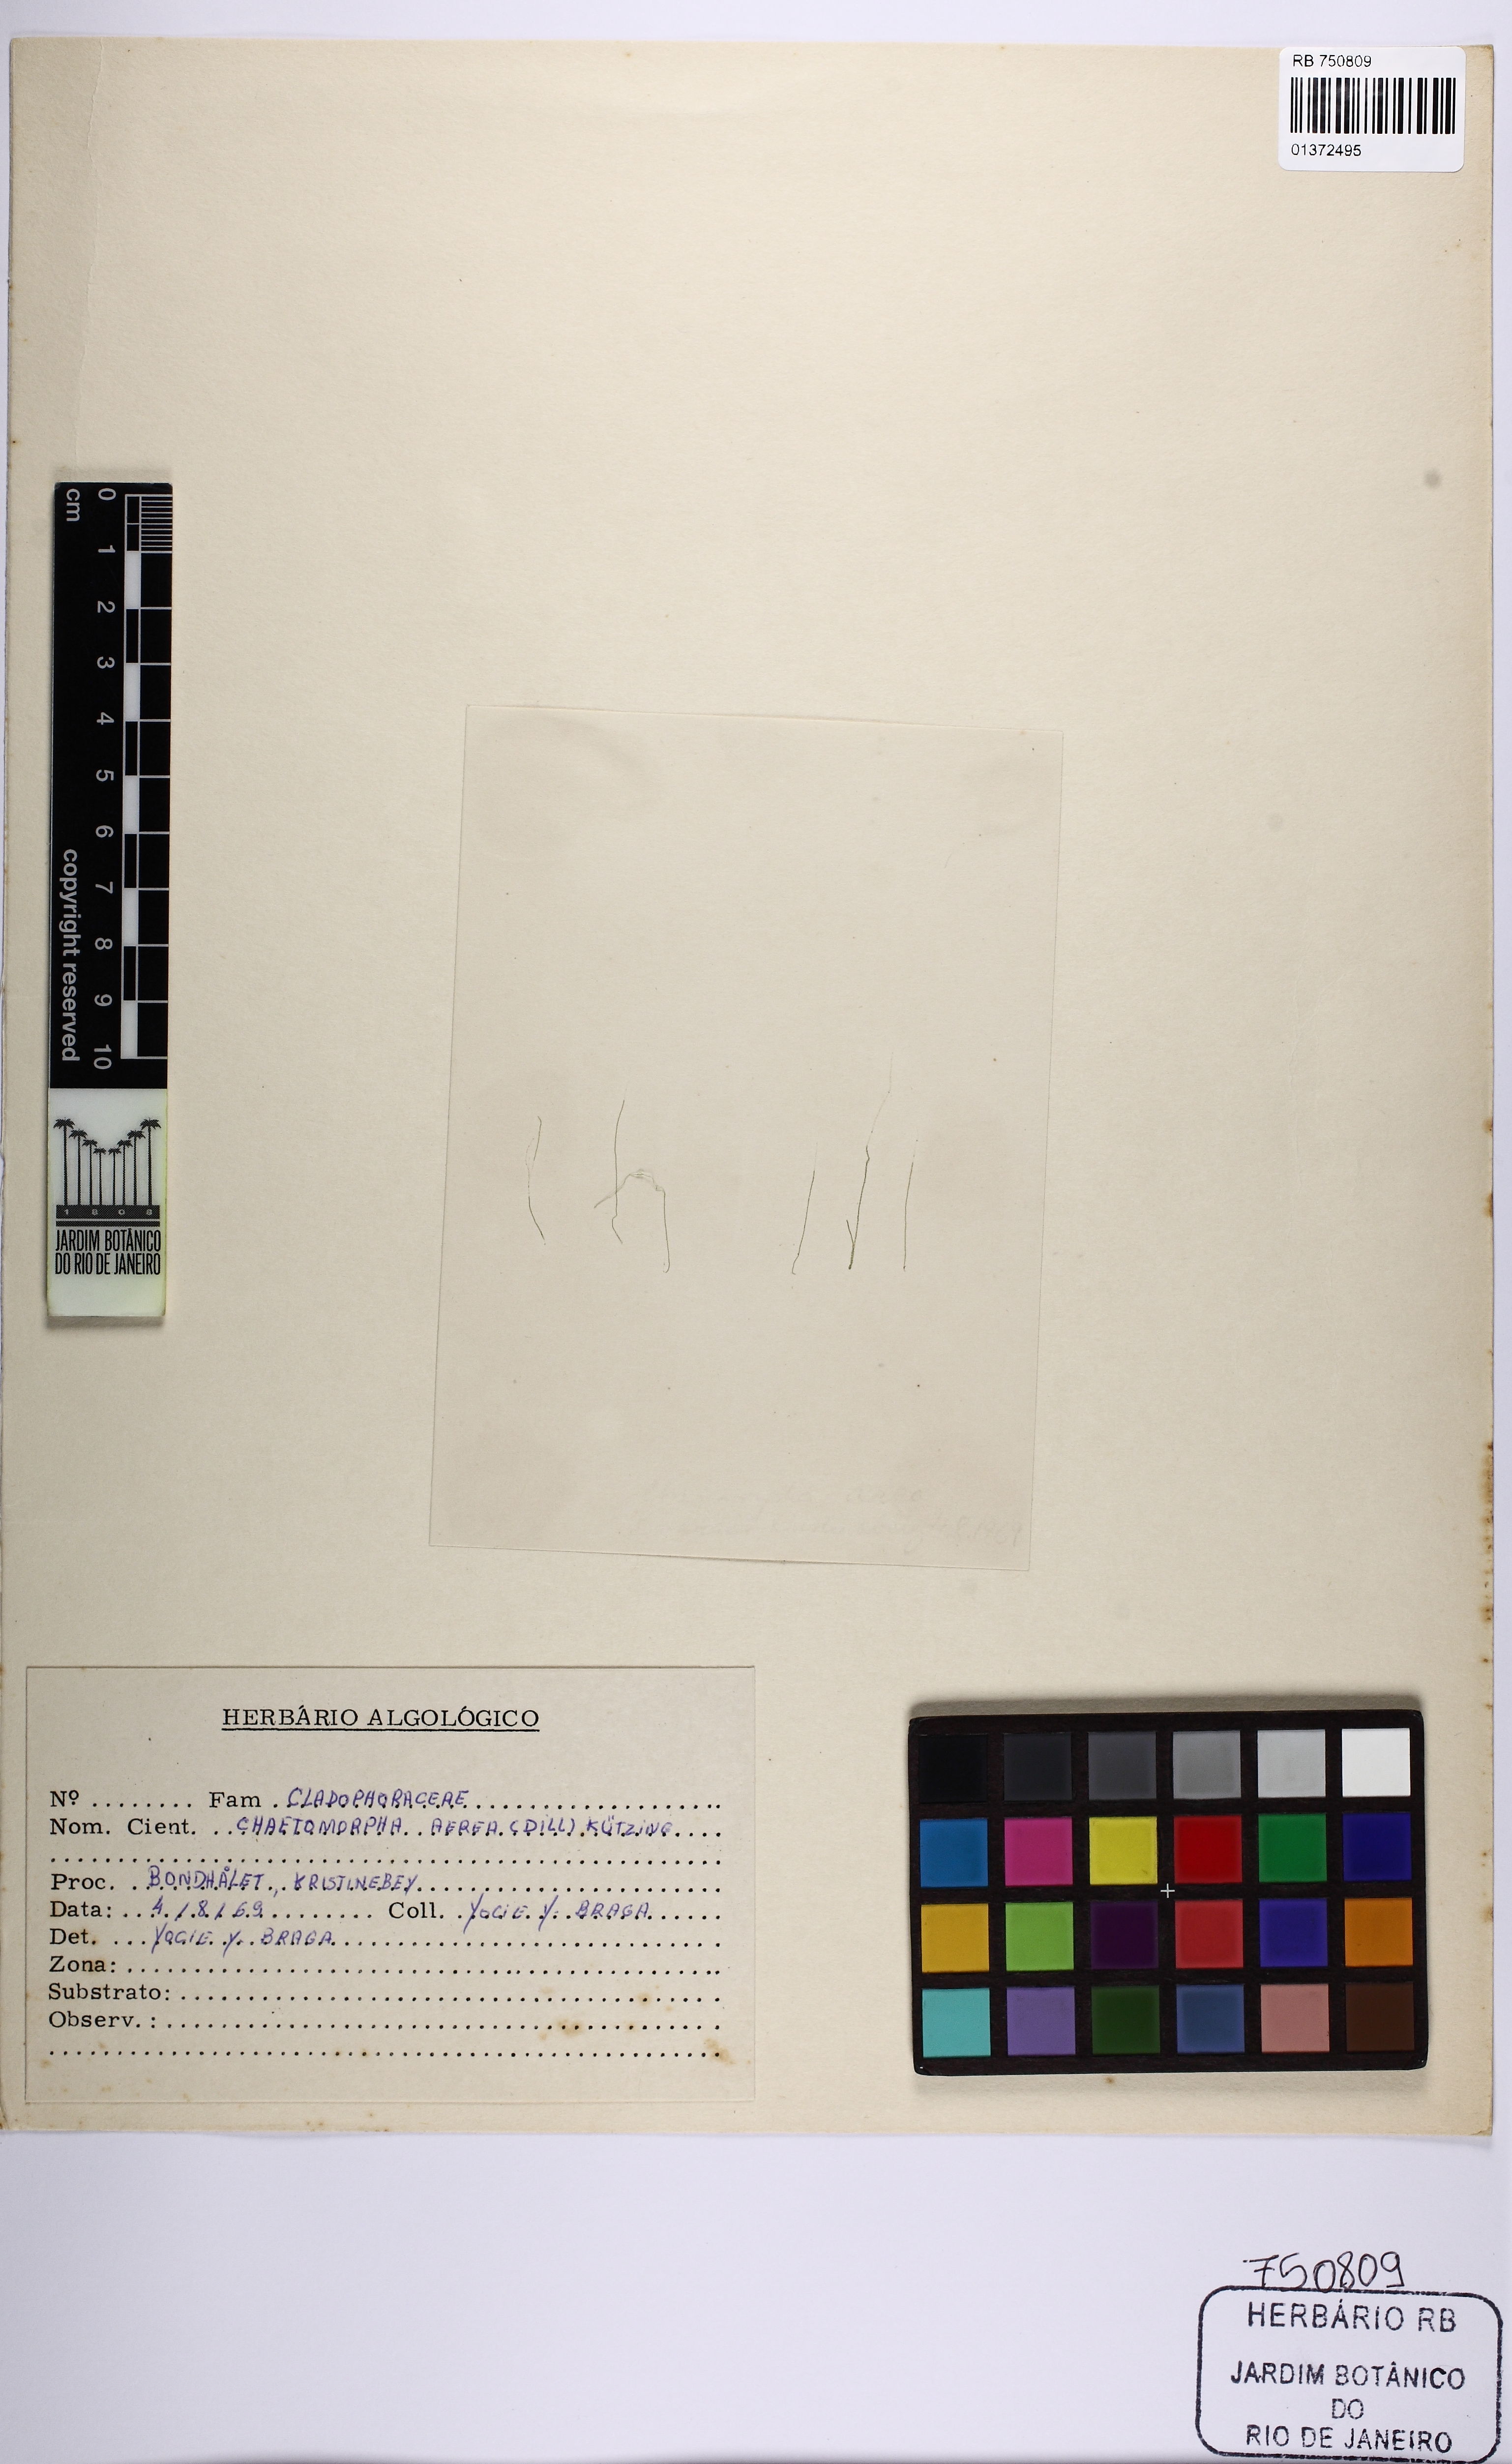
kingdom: Plantae
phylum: Chlorophyta
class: Ulvophyceae
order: Cladophorales
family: Cladophoraceae
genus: Chaetomorpha
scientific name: Chaetomorpha aerea
